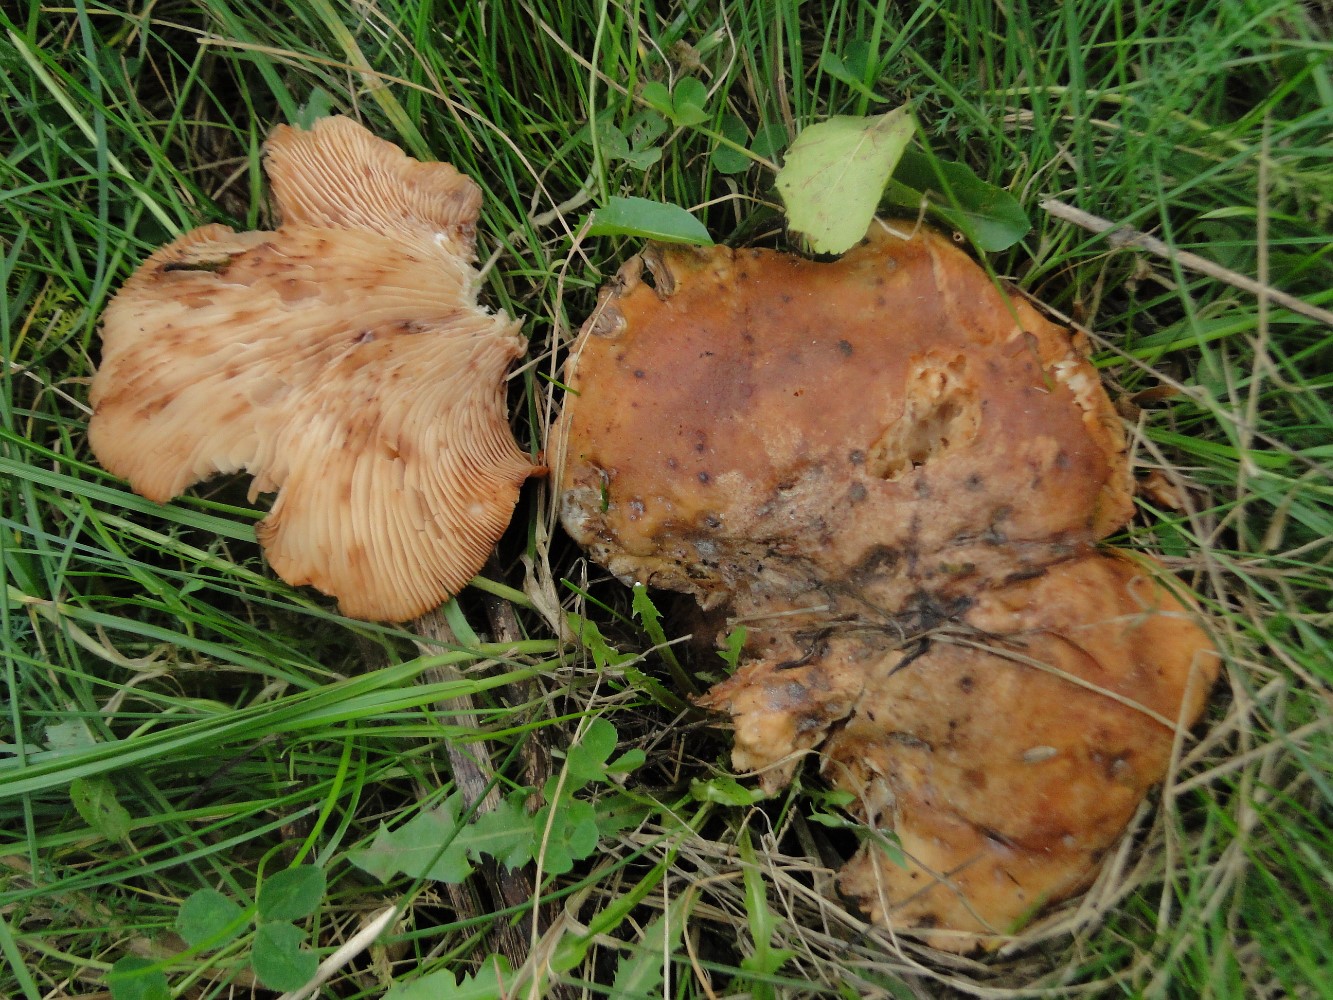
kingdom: Fungi
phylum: Basidiomycota
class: Agaricomycetes
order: Agaricales
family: Entolomataceae
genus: Clitopilus
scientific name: Clitopilus geminus
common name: kødfarvet troldhat
